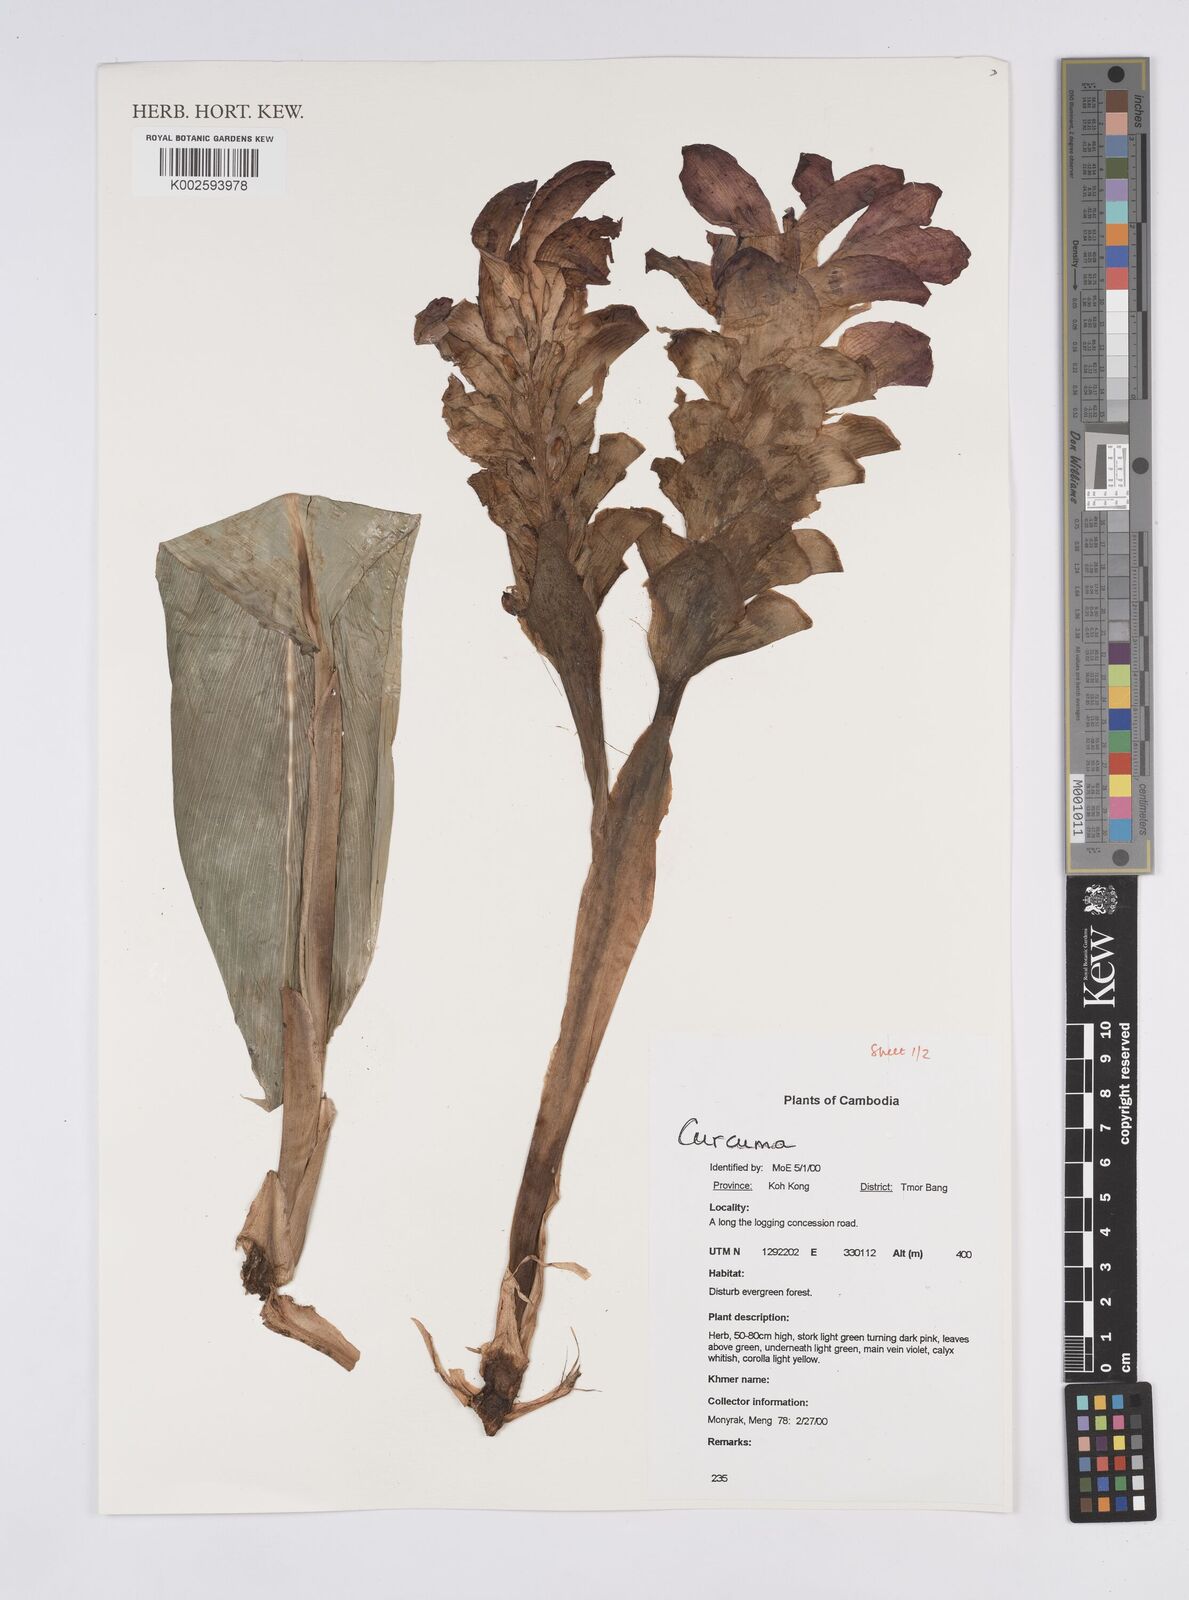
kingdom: Plantae
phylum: Tracheophyta
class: Liliopsida
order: Zingiberales
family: Zingiberaceae
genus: Curcuma
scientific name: Curcuma
